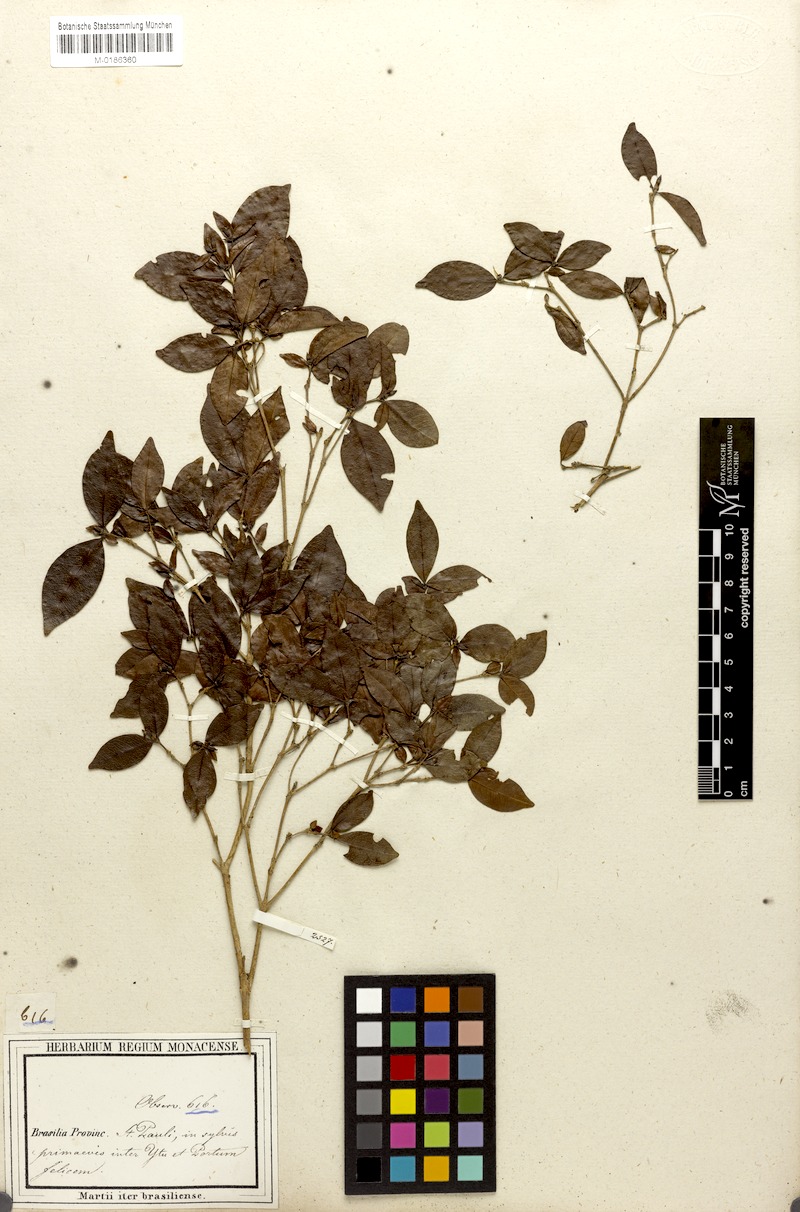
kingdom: Plantae
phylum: Tracheophyta
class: Magnoliopsida
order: Gentianales
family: Rubiaceae
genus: Cordiera
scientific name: Cordiera concolor
